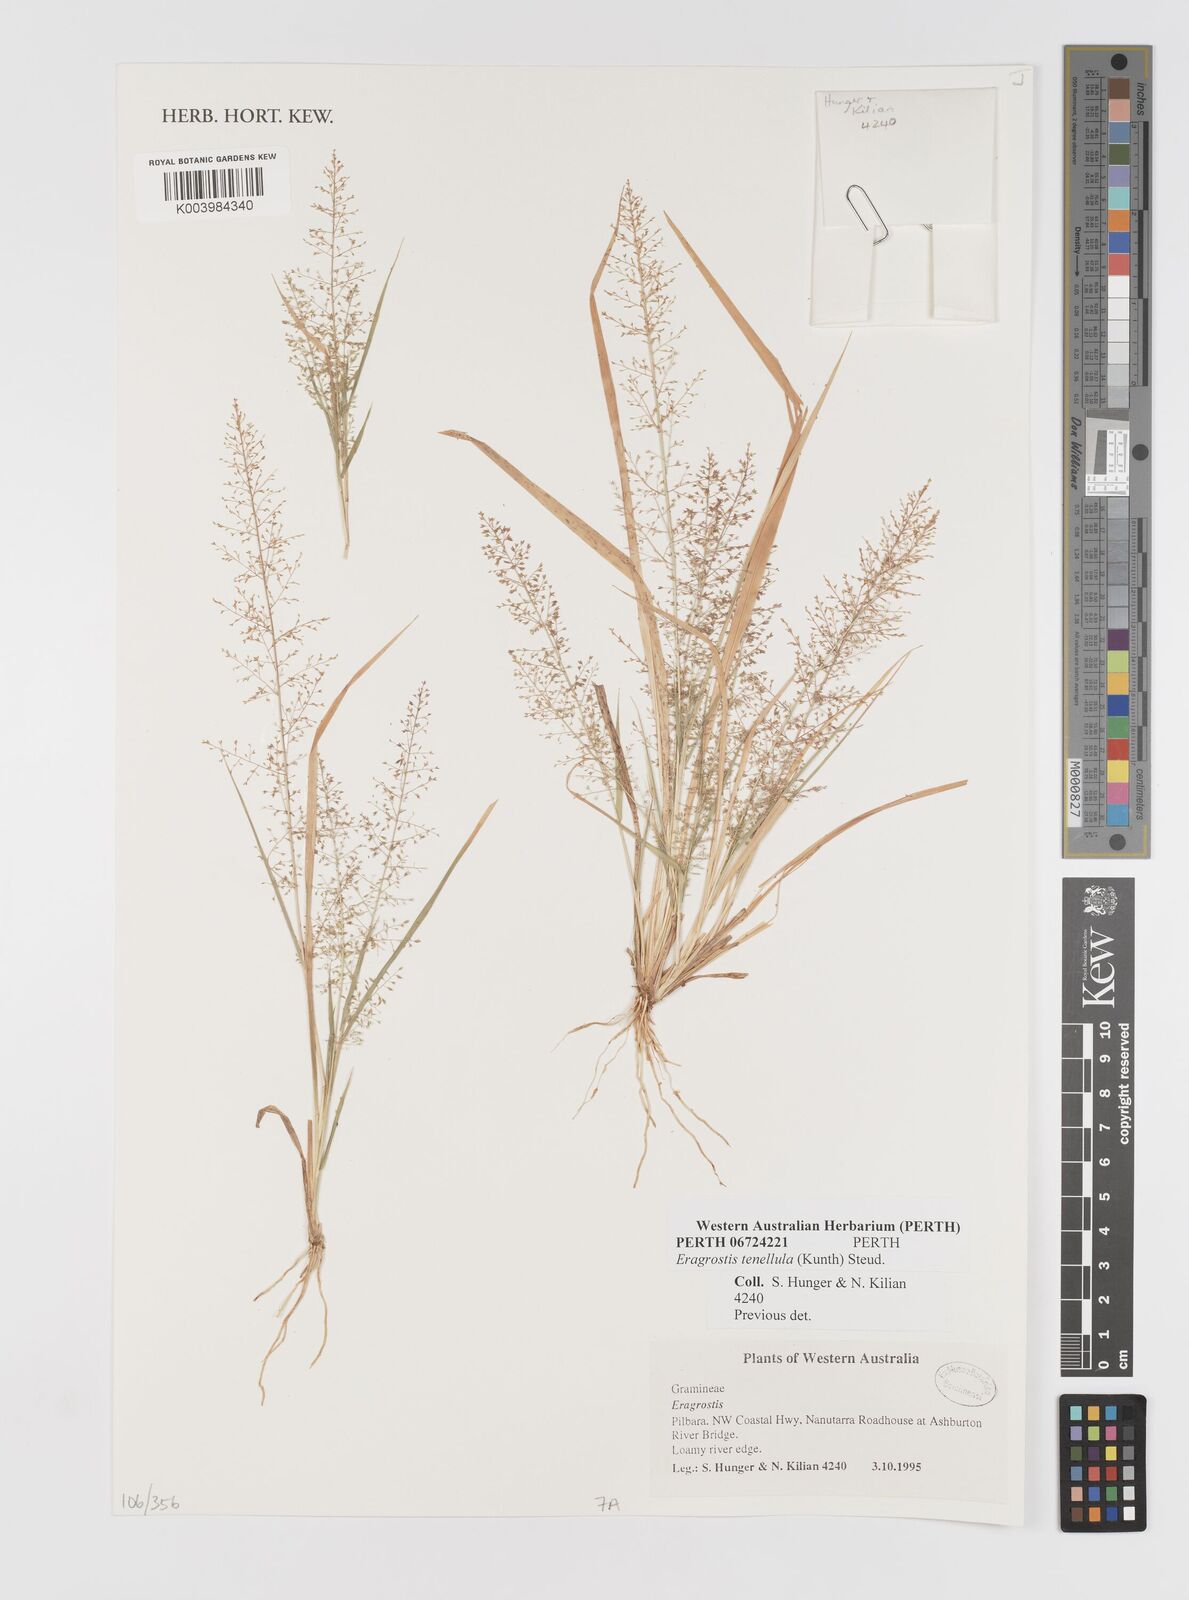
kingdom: Plantae
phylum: Tracheophyta
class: Liliopsida
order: Poales
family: Poaceae
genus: Eragrostis
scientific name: Eragrostis tenellula
